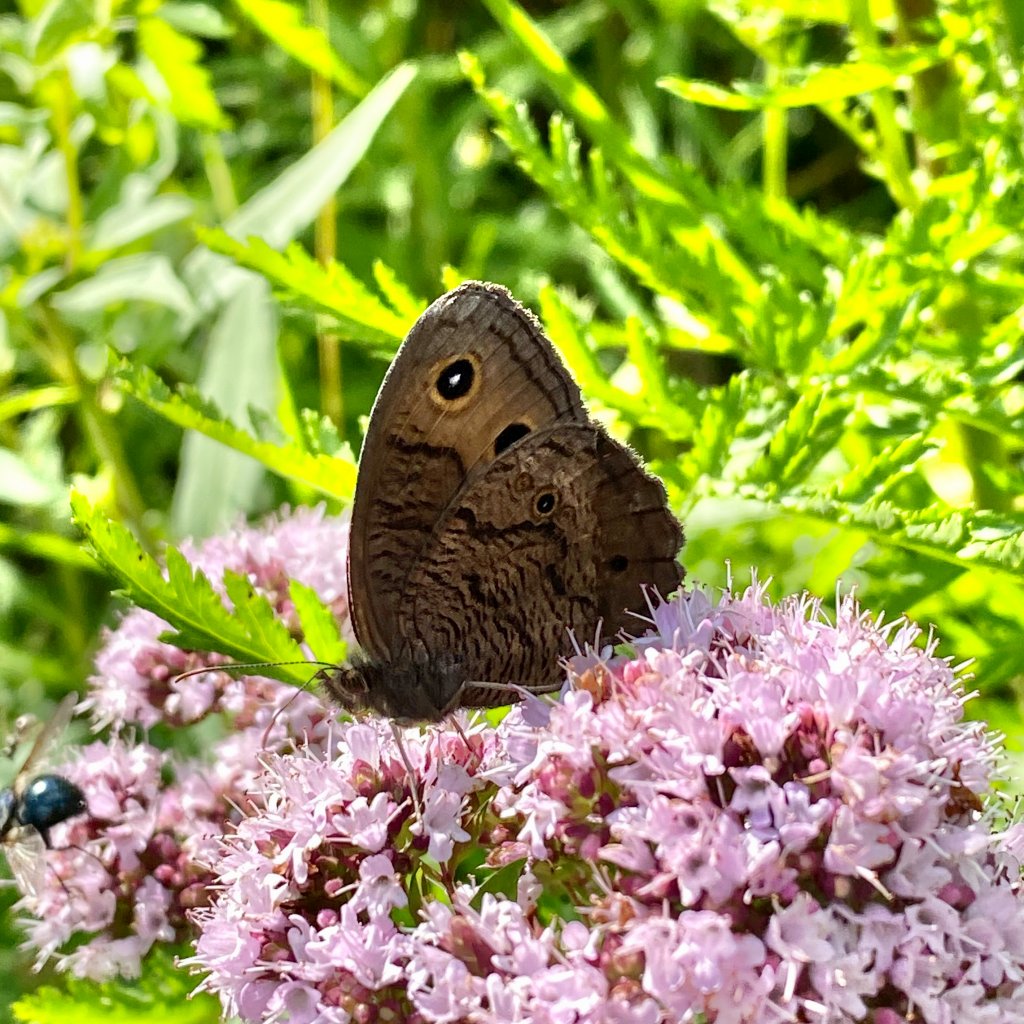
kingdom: Animalia
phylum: Arthropoda
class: Insecta
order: Lepidoptera
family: Nymphalidae
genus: Cercyonis
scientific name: Cercyonis pegala
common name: Common Wood-Nymph
